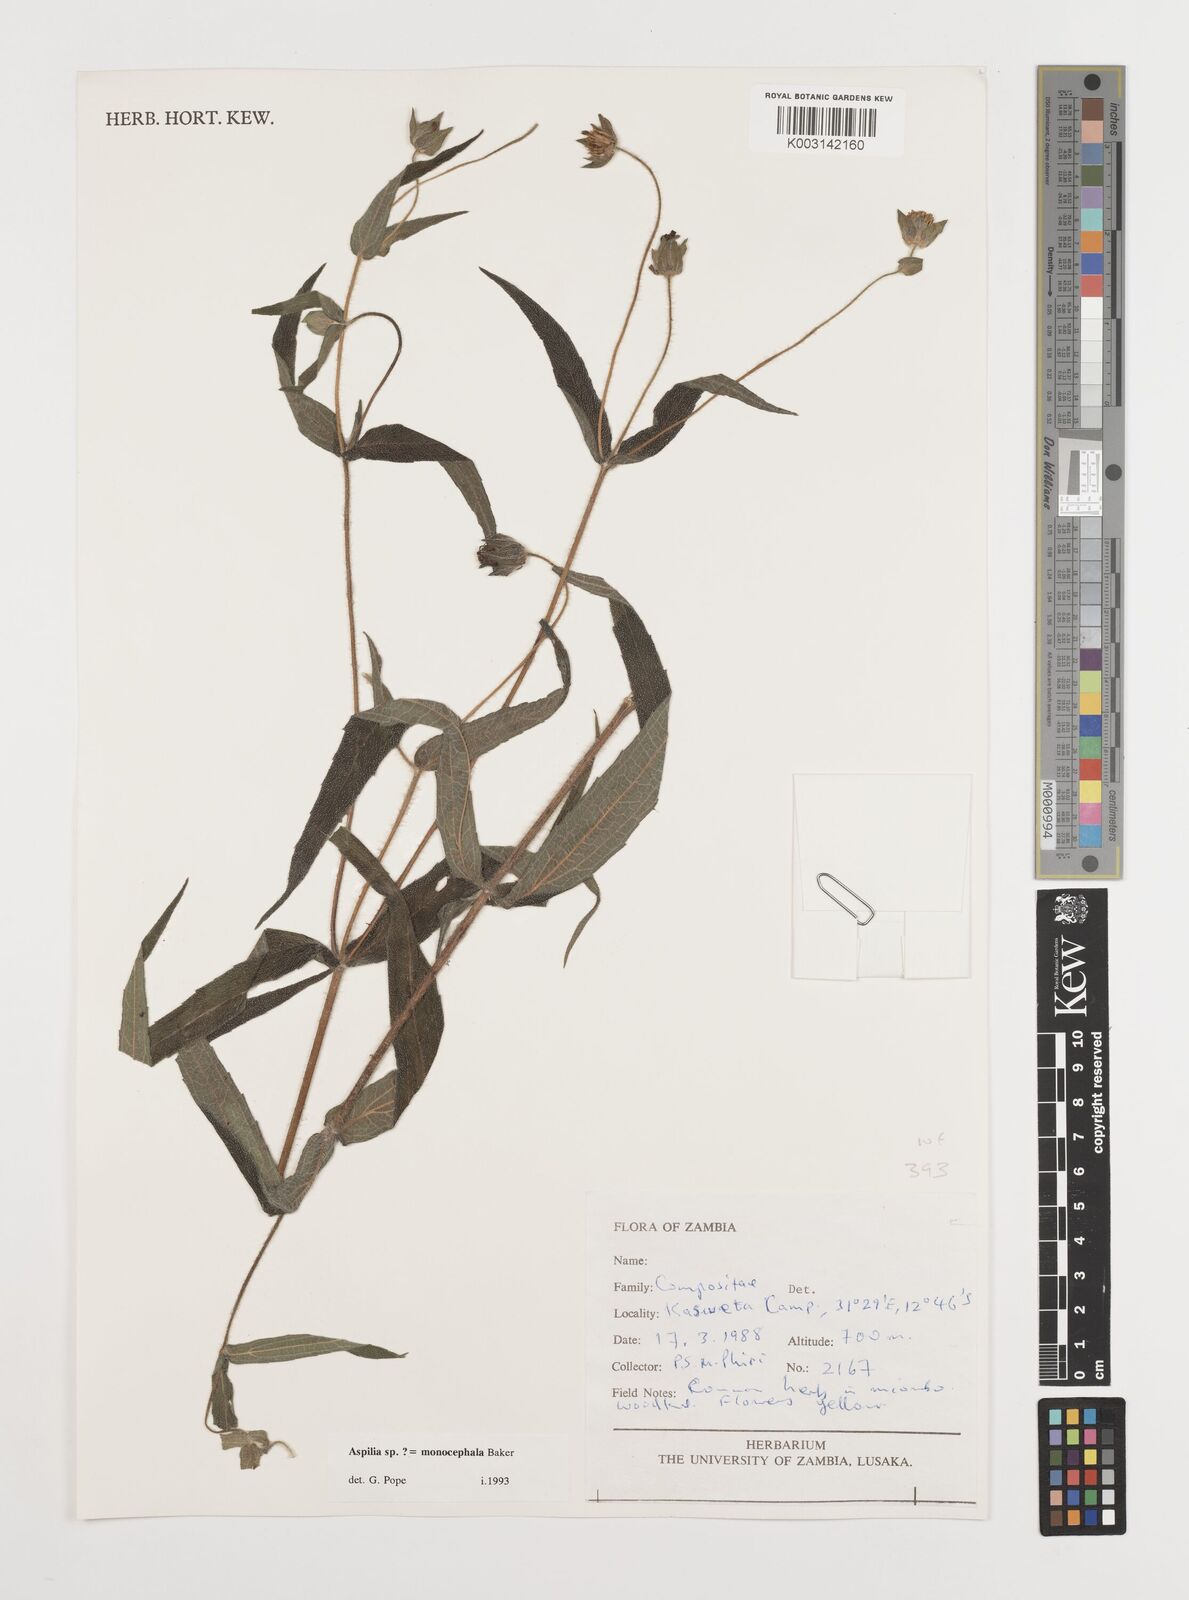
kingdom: Plantae
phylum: Tracheophyta
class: Magnoliopsida
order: Asterales
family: Asteraceae
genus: Aspilia
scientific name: Aspilia natalensis
